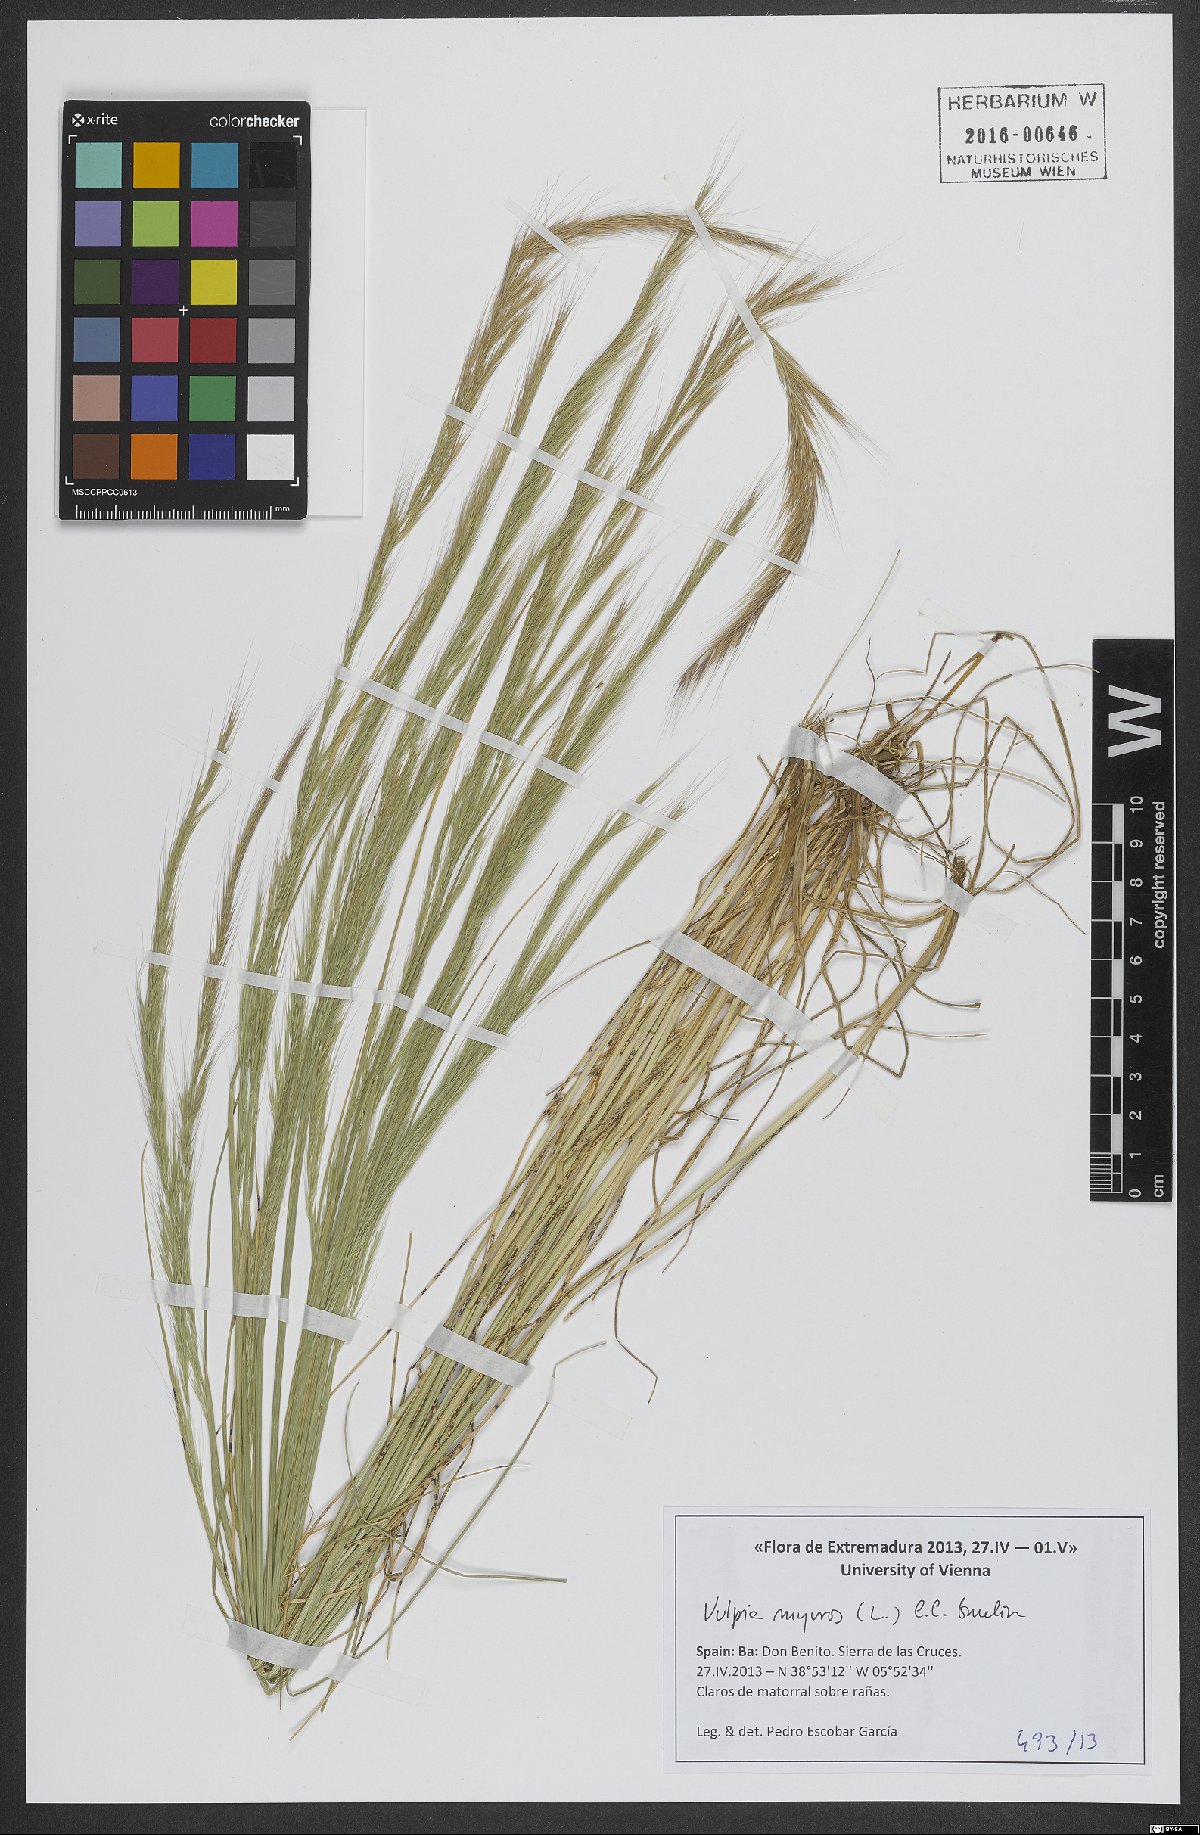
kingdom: Plantae
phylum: Tracheophyta
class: Liliopsida
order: Poales
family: Poaceae
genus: Festuca
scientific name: Festuca myuros
